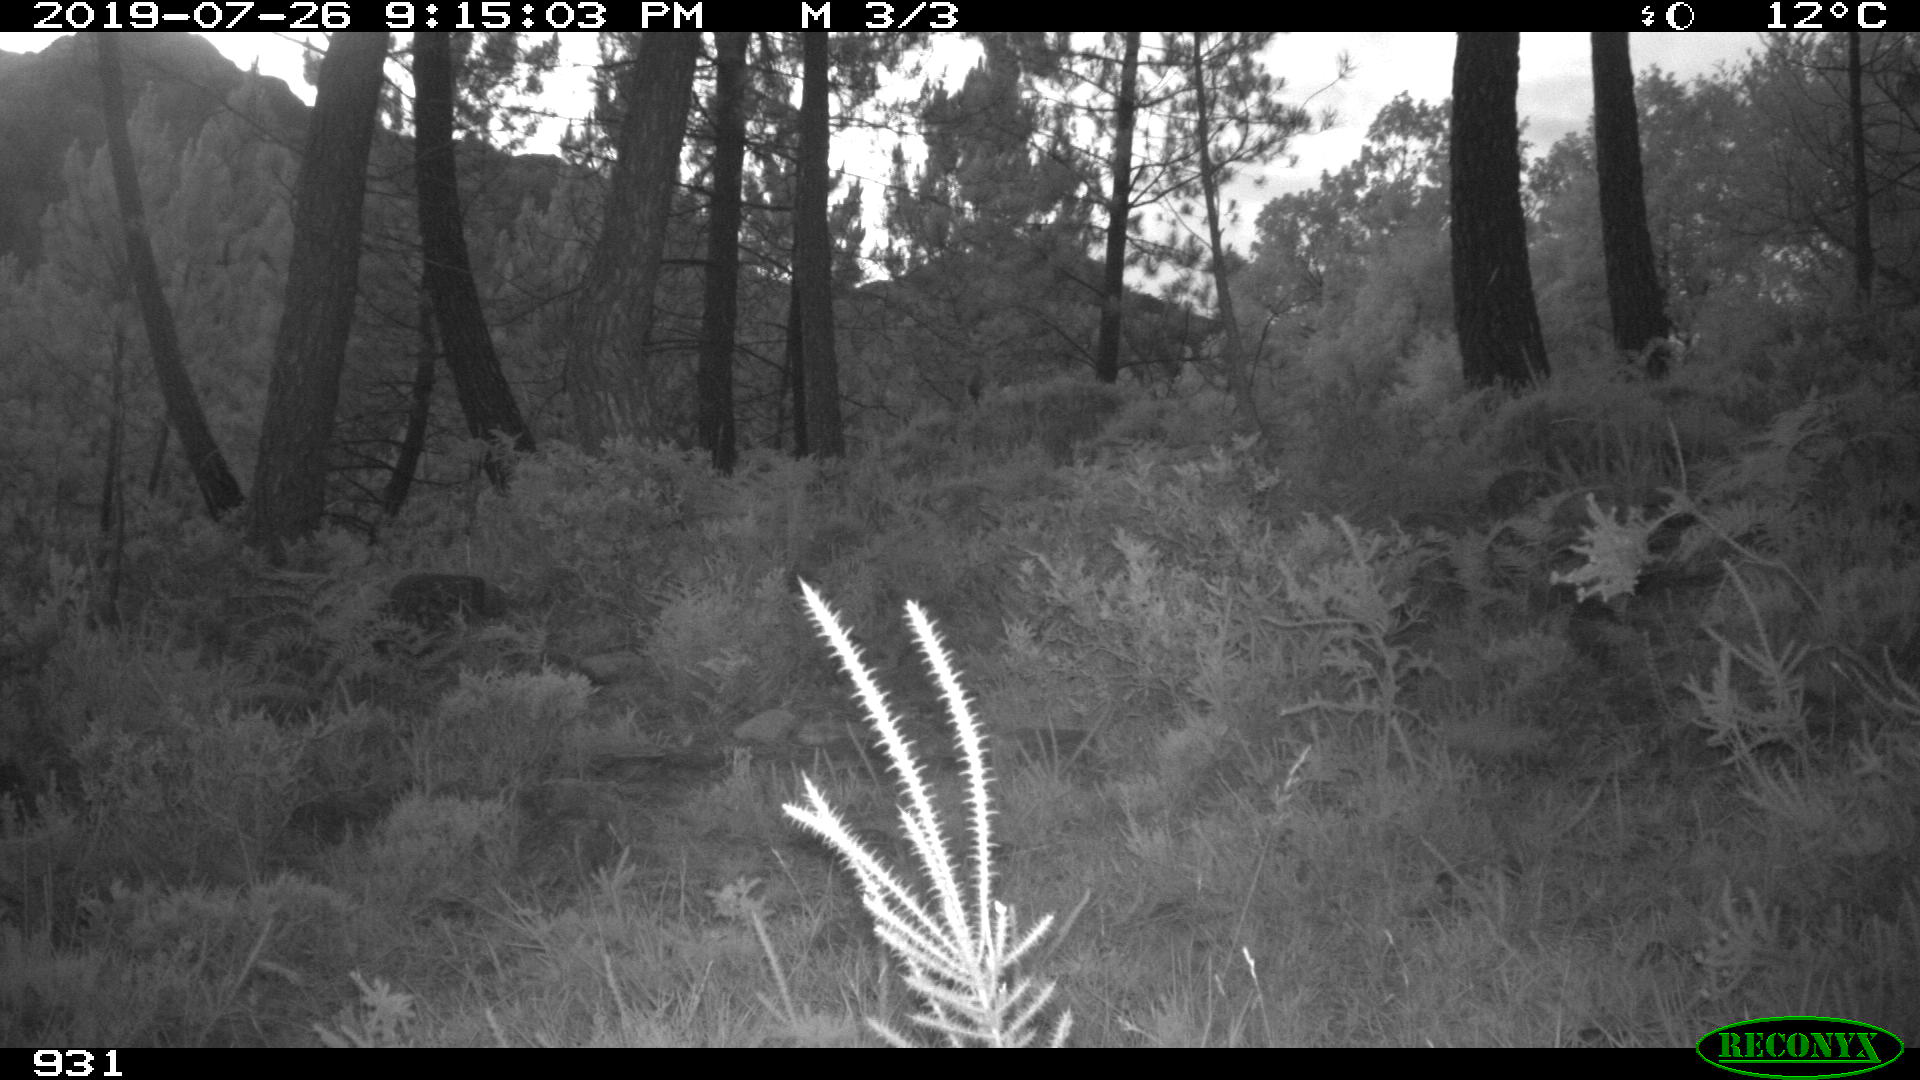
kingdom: Animalia
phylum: Chordata
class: Mammalia
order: Artiodactyla
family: Cervidae
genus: Capreolus
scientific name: Capreolus capreolus
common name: Western roe deer
